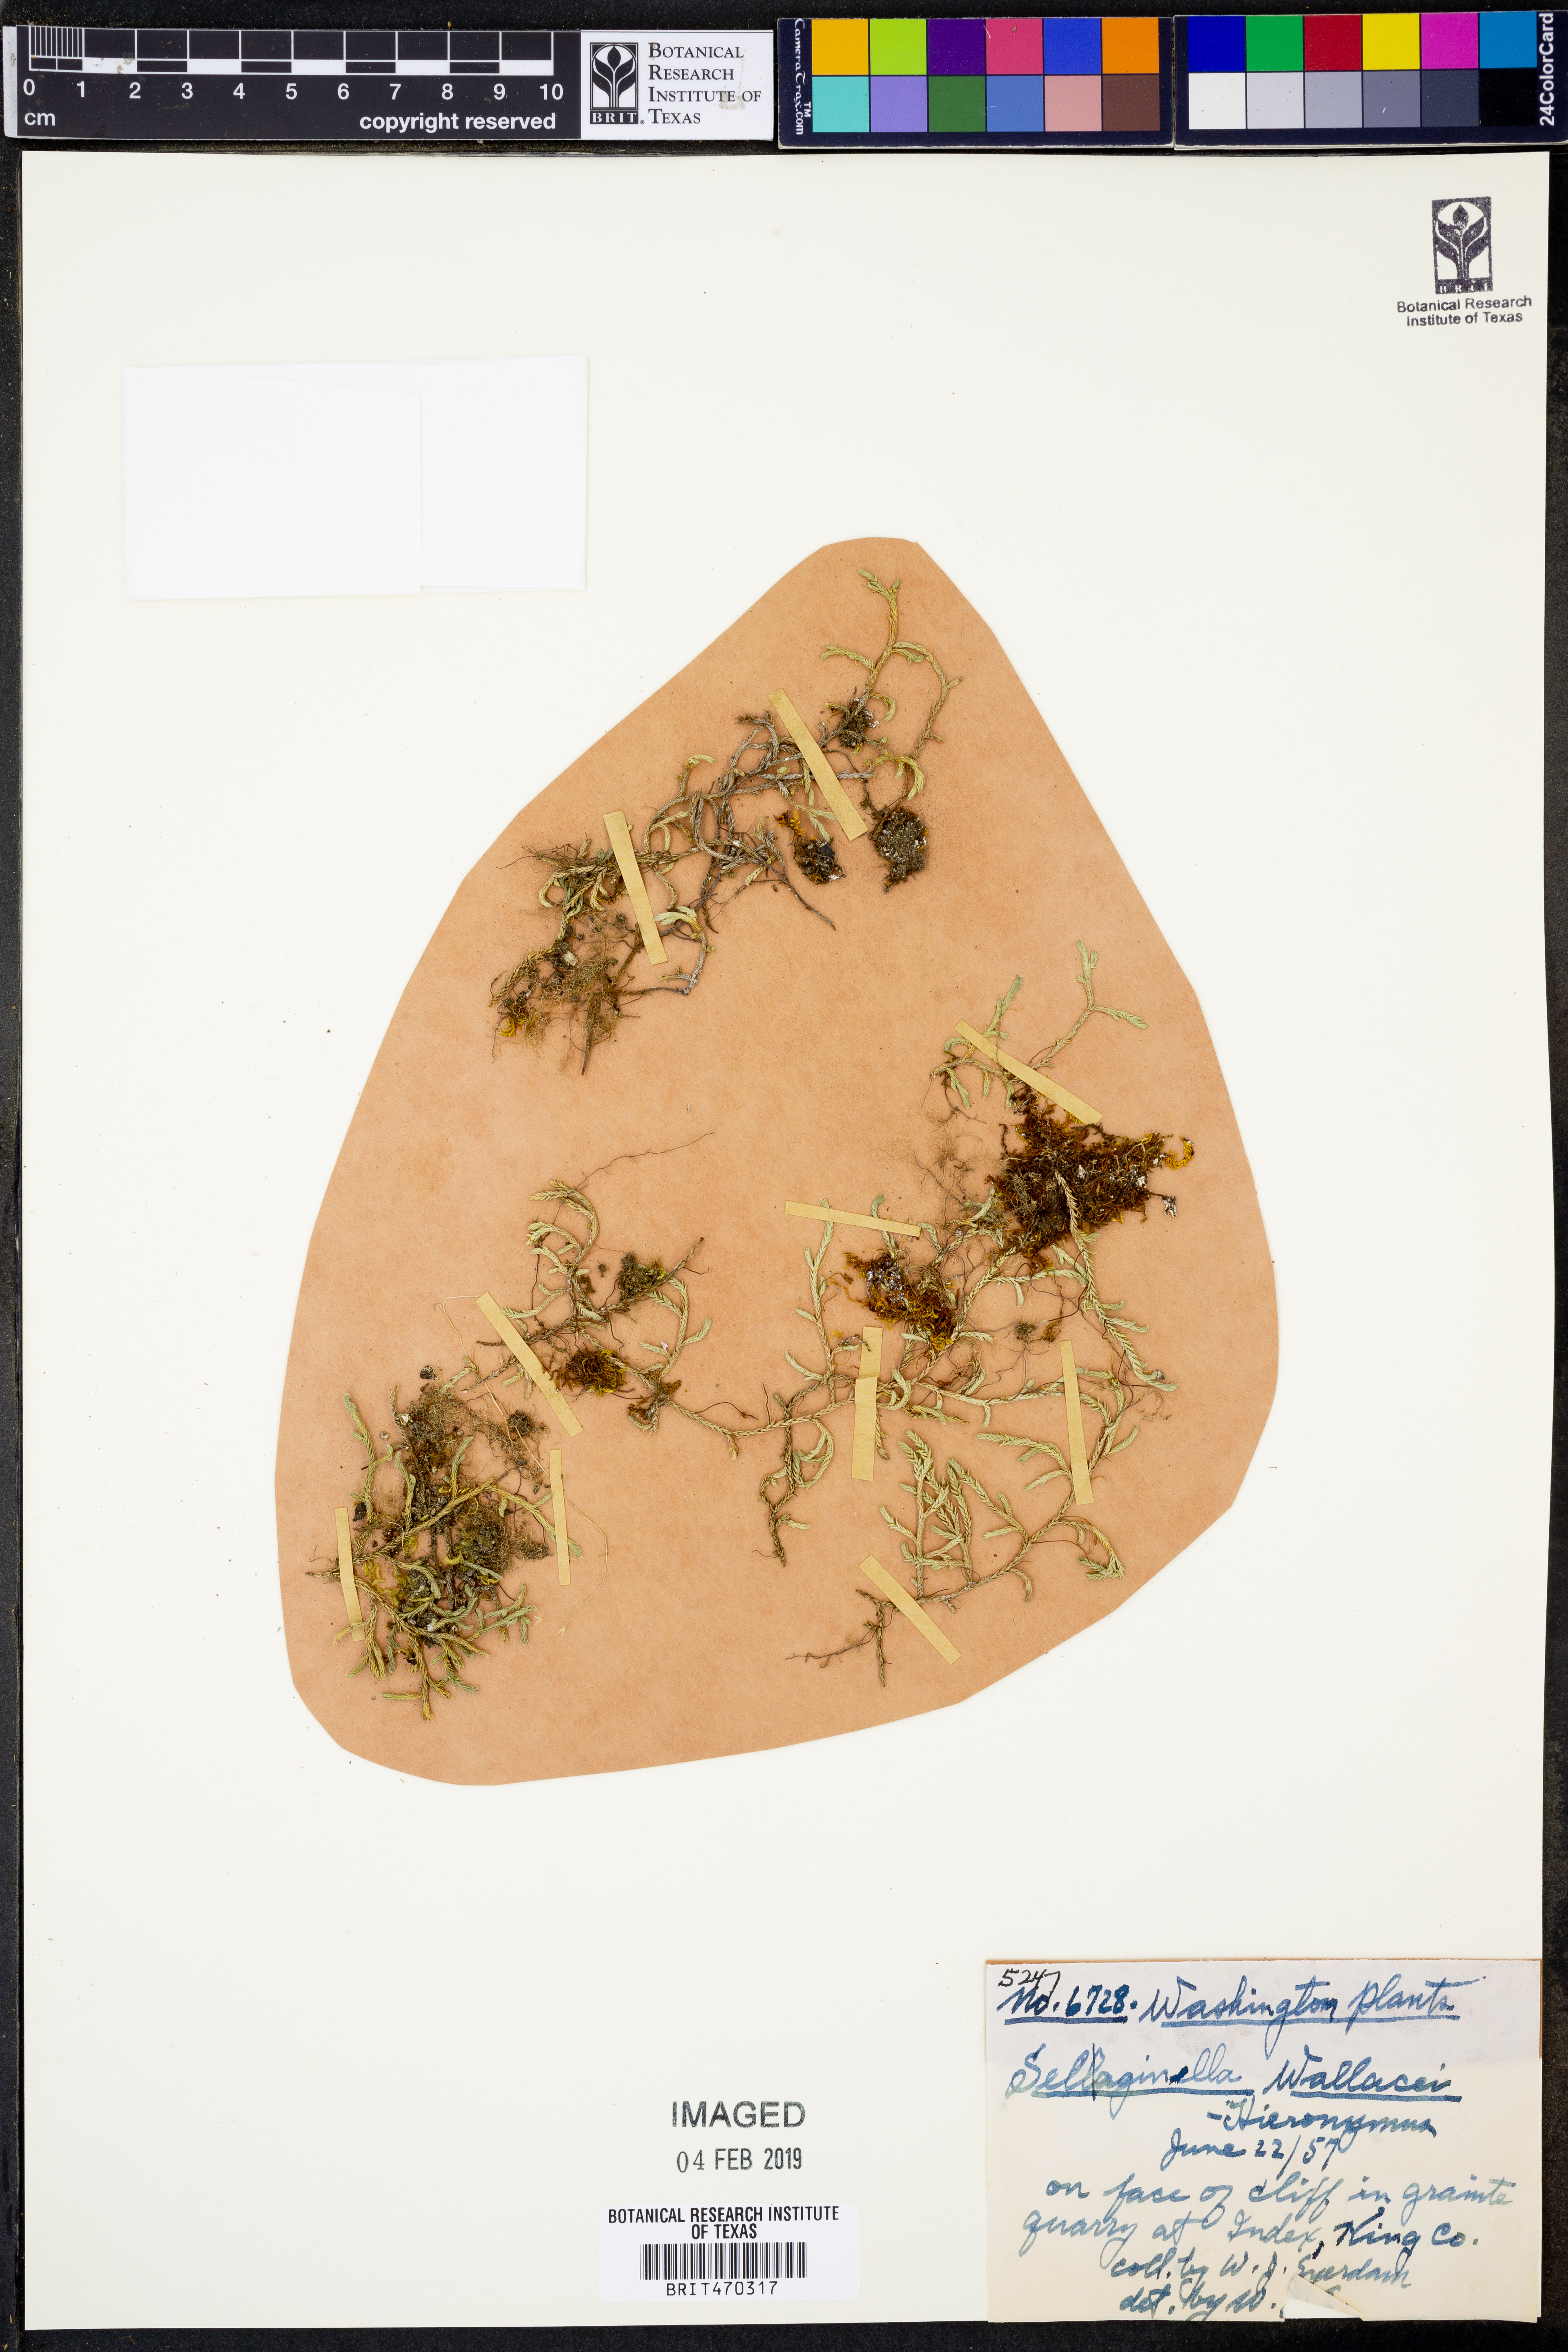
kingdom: Plantae
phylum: Tracheophyta
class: Lycopodiopsida
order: Selaginellales
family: Selaginellaceae
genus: Selaginella
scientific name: Selaginella wallacei
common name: Wallace's selaginella
